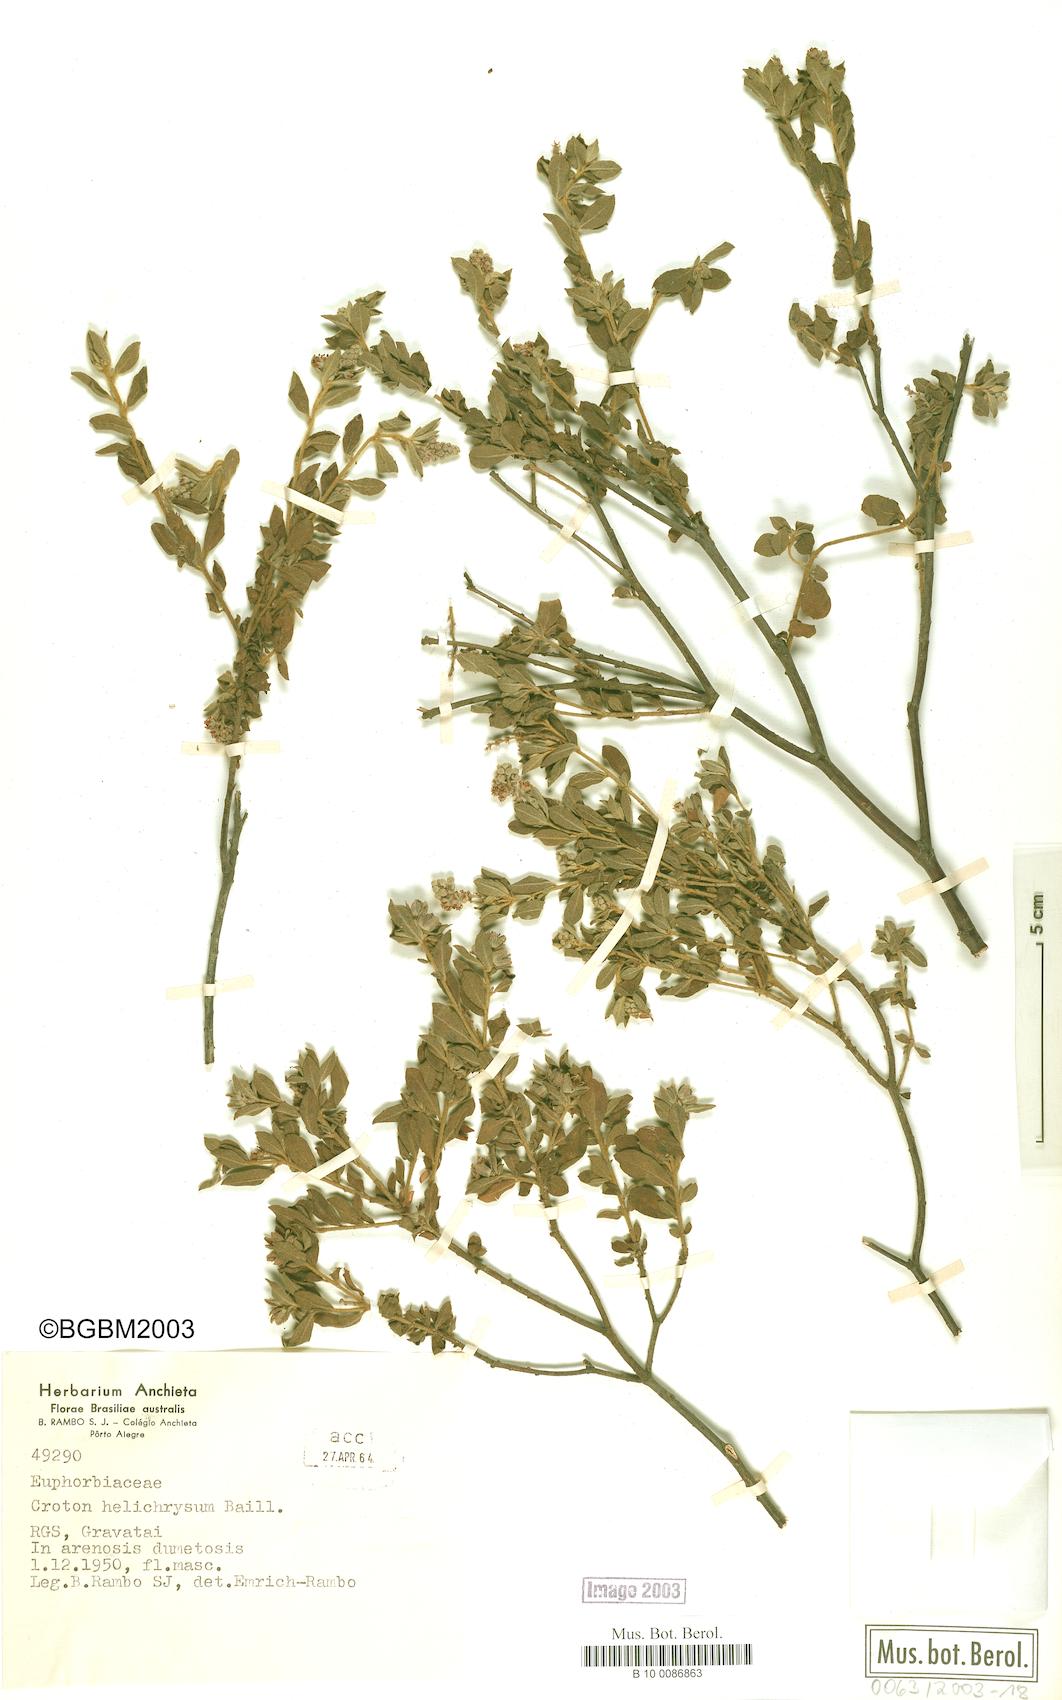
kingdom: Plantae
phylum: Tracheophyta
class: Magnoliopsida
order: Malpighiales
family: Euphorbiaceae
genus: Croton
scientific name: Croton helichrysum
